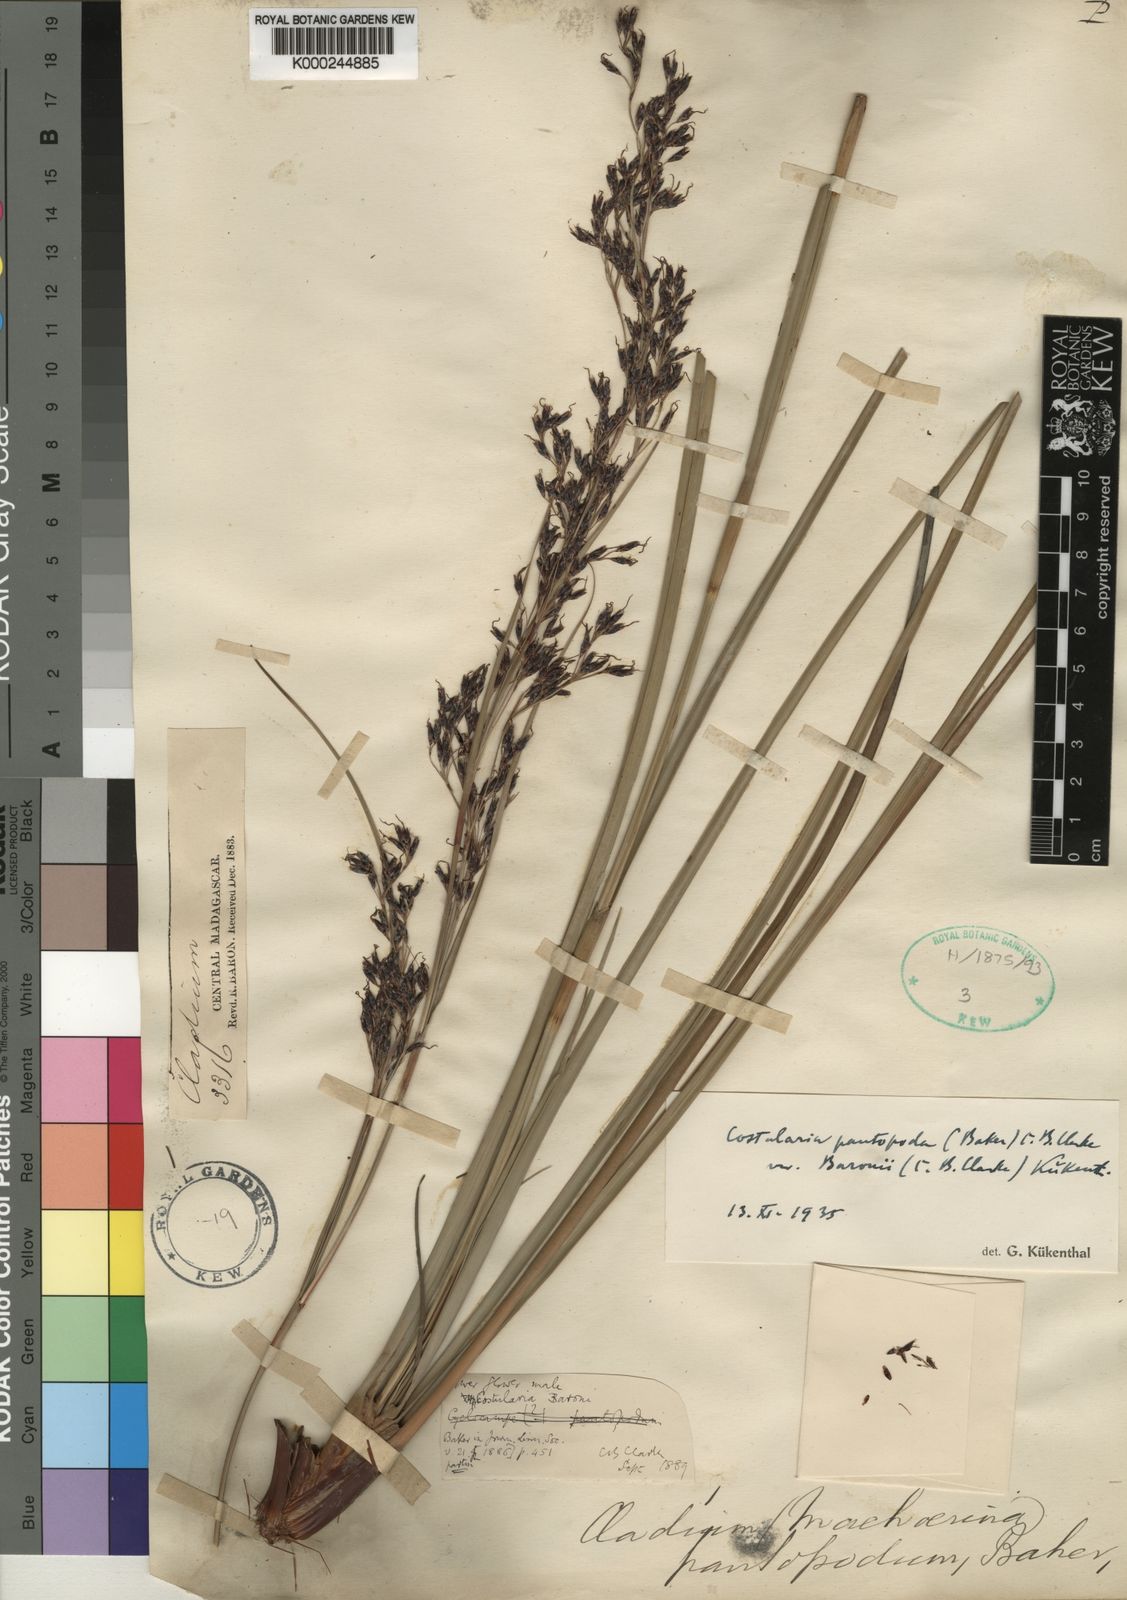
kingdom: Plantae
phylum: Tracheophyta
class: Liliopsida
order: Poales
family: Cyperaceae
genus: Costularia
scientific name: Costularia pantopoda
